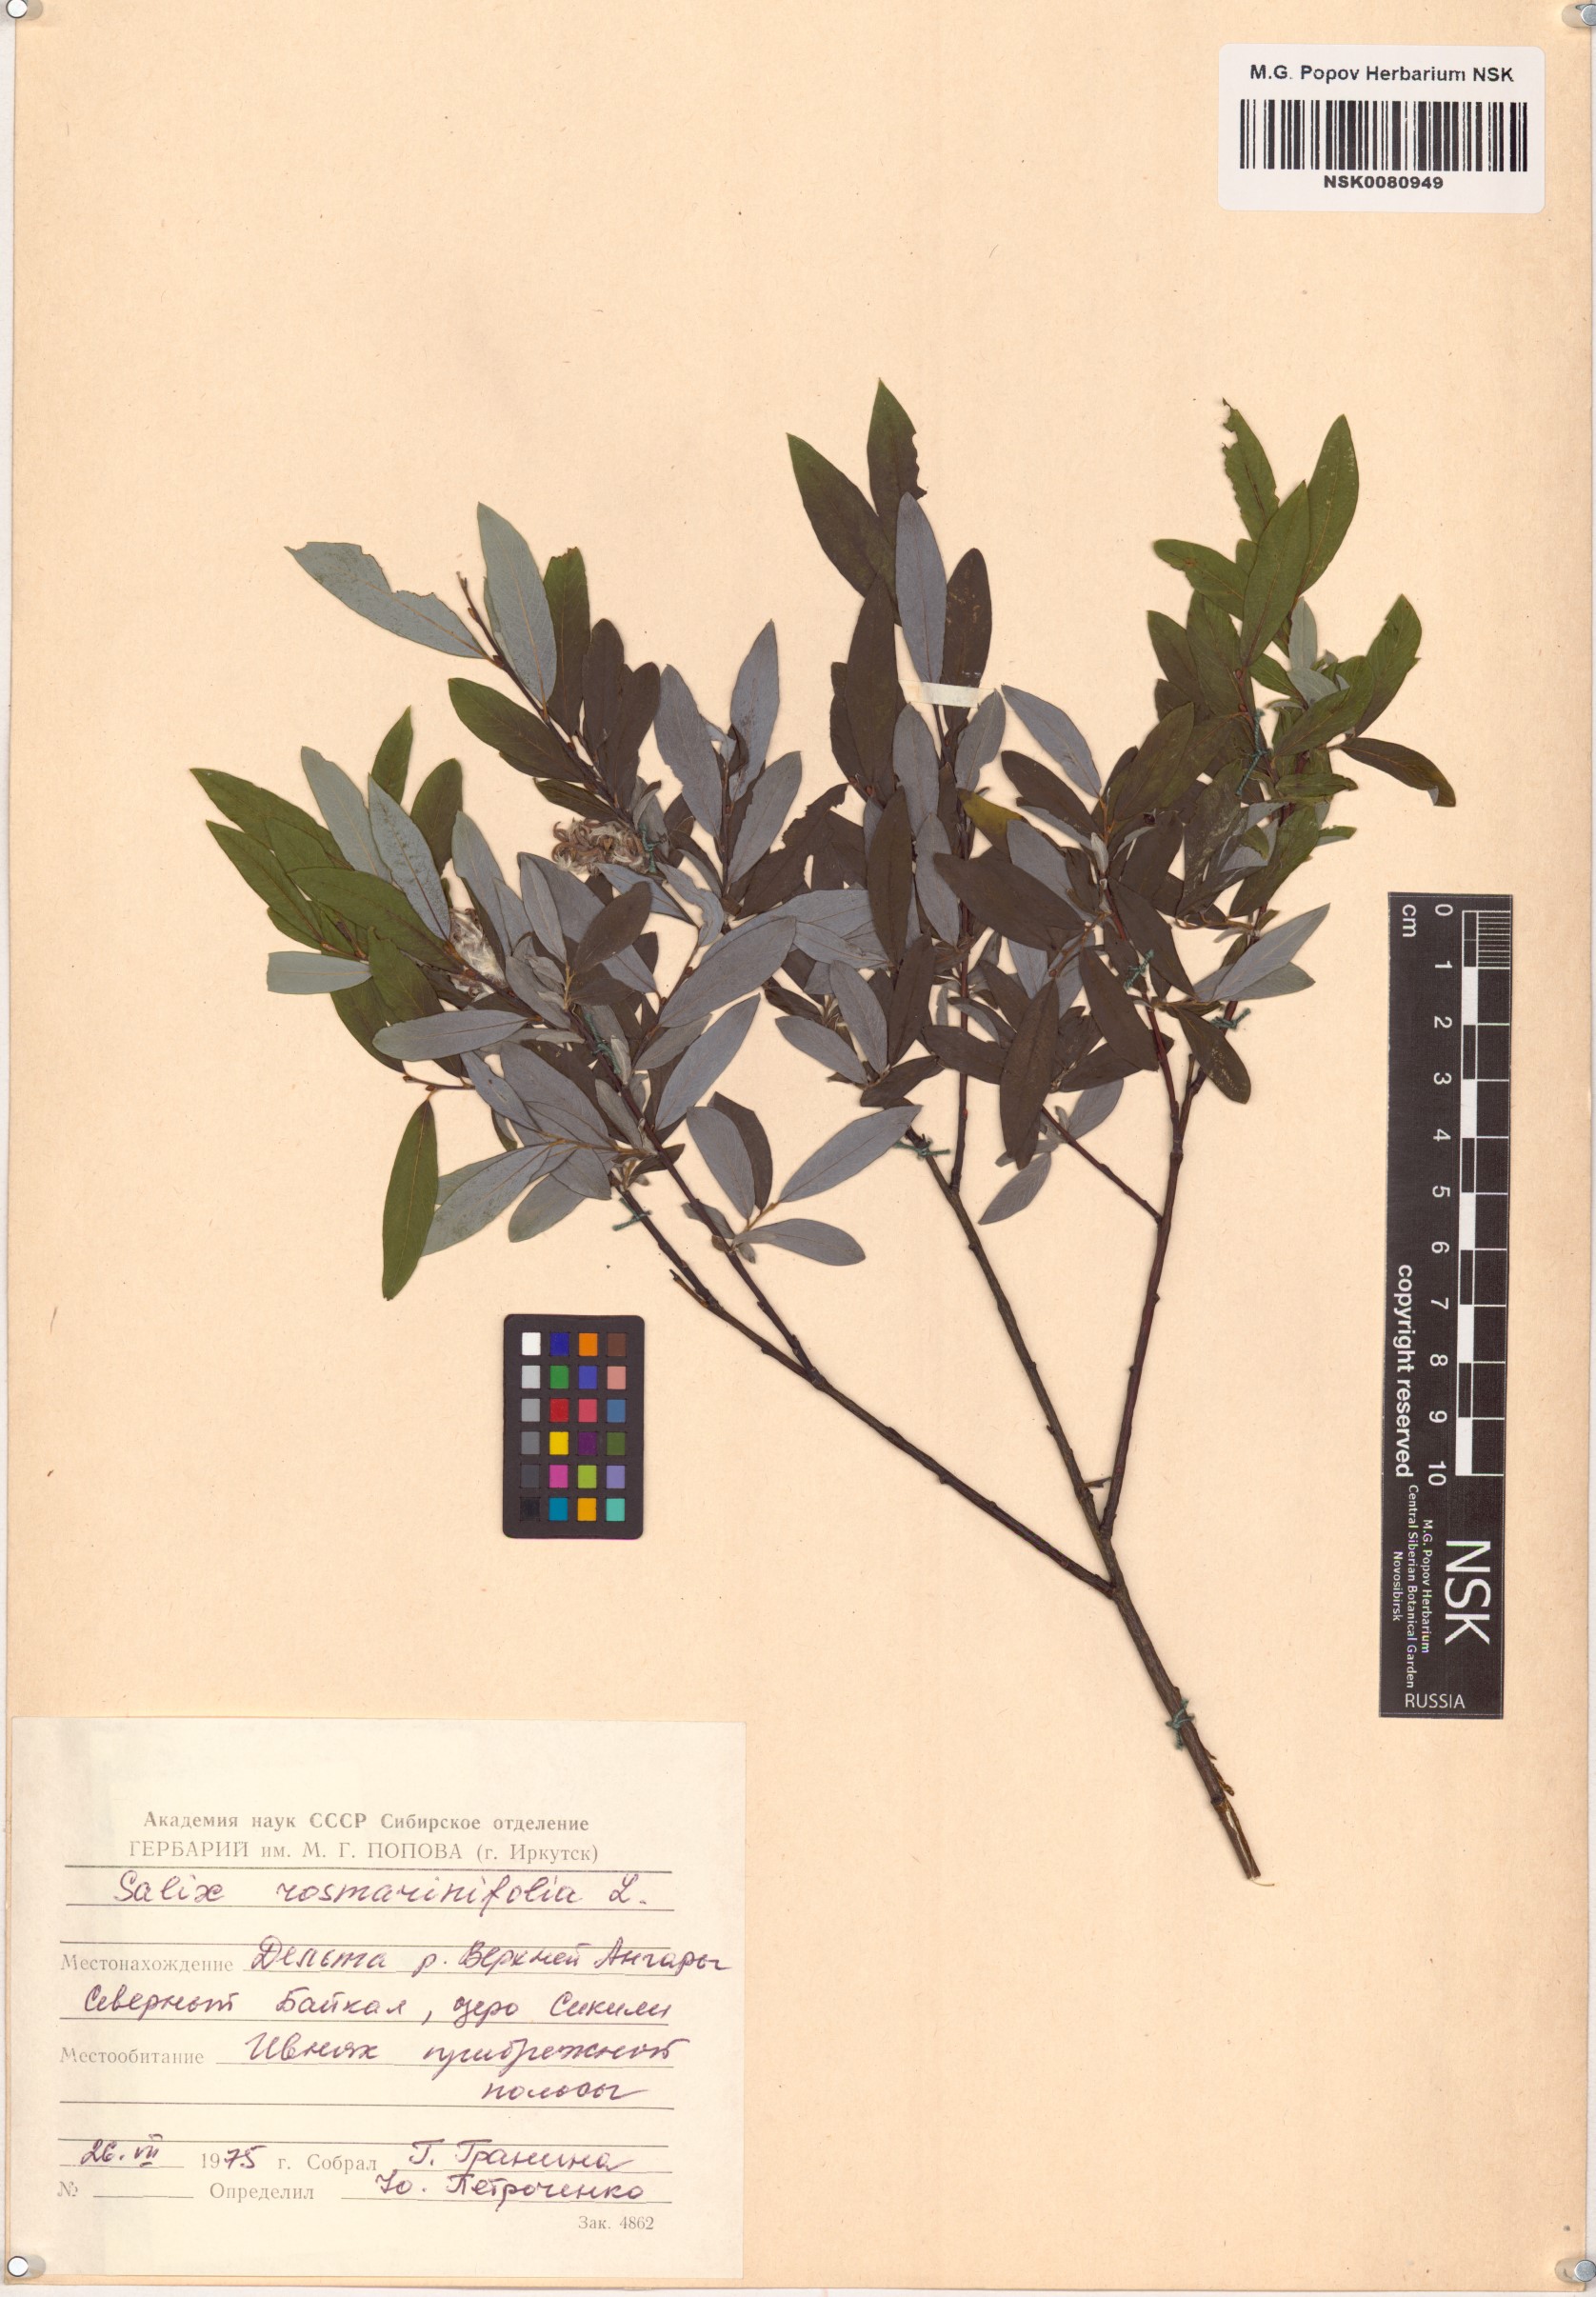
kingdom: Plantae
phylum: Tracheophyta
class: Magnoliopsida
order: Malpighiales
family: Salicaceae
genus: Salix
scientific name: Salix rosmarinifolia
